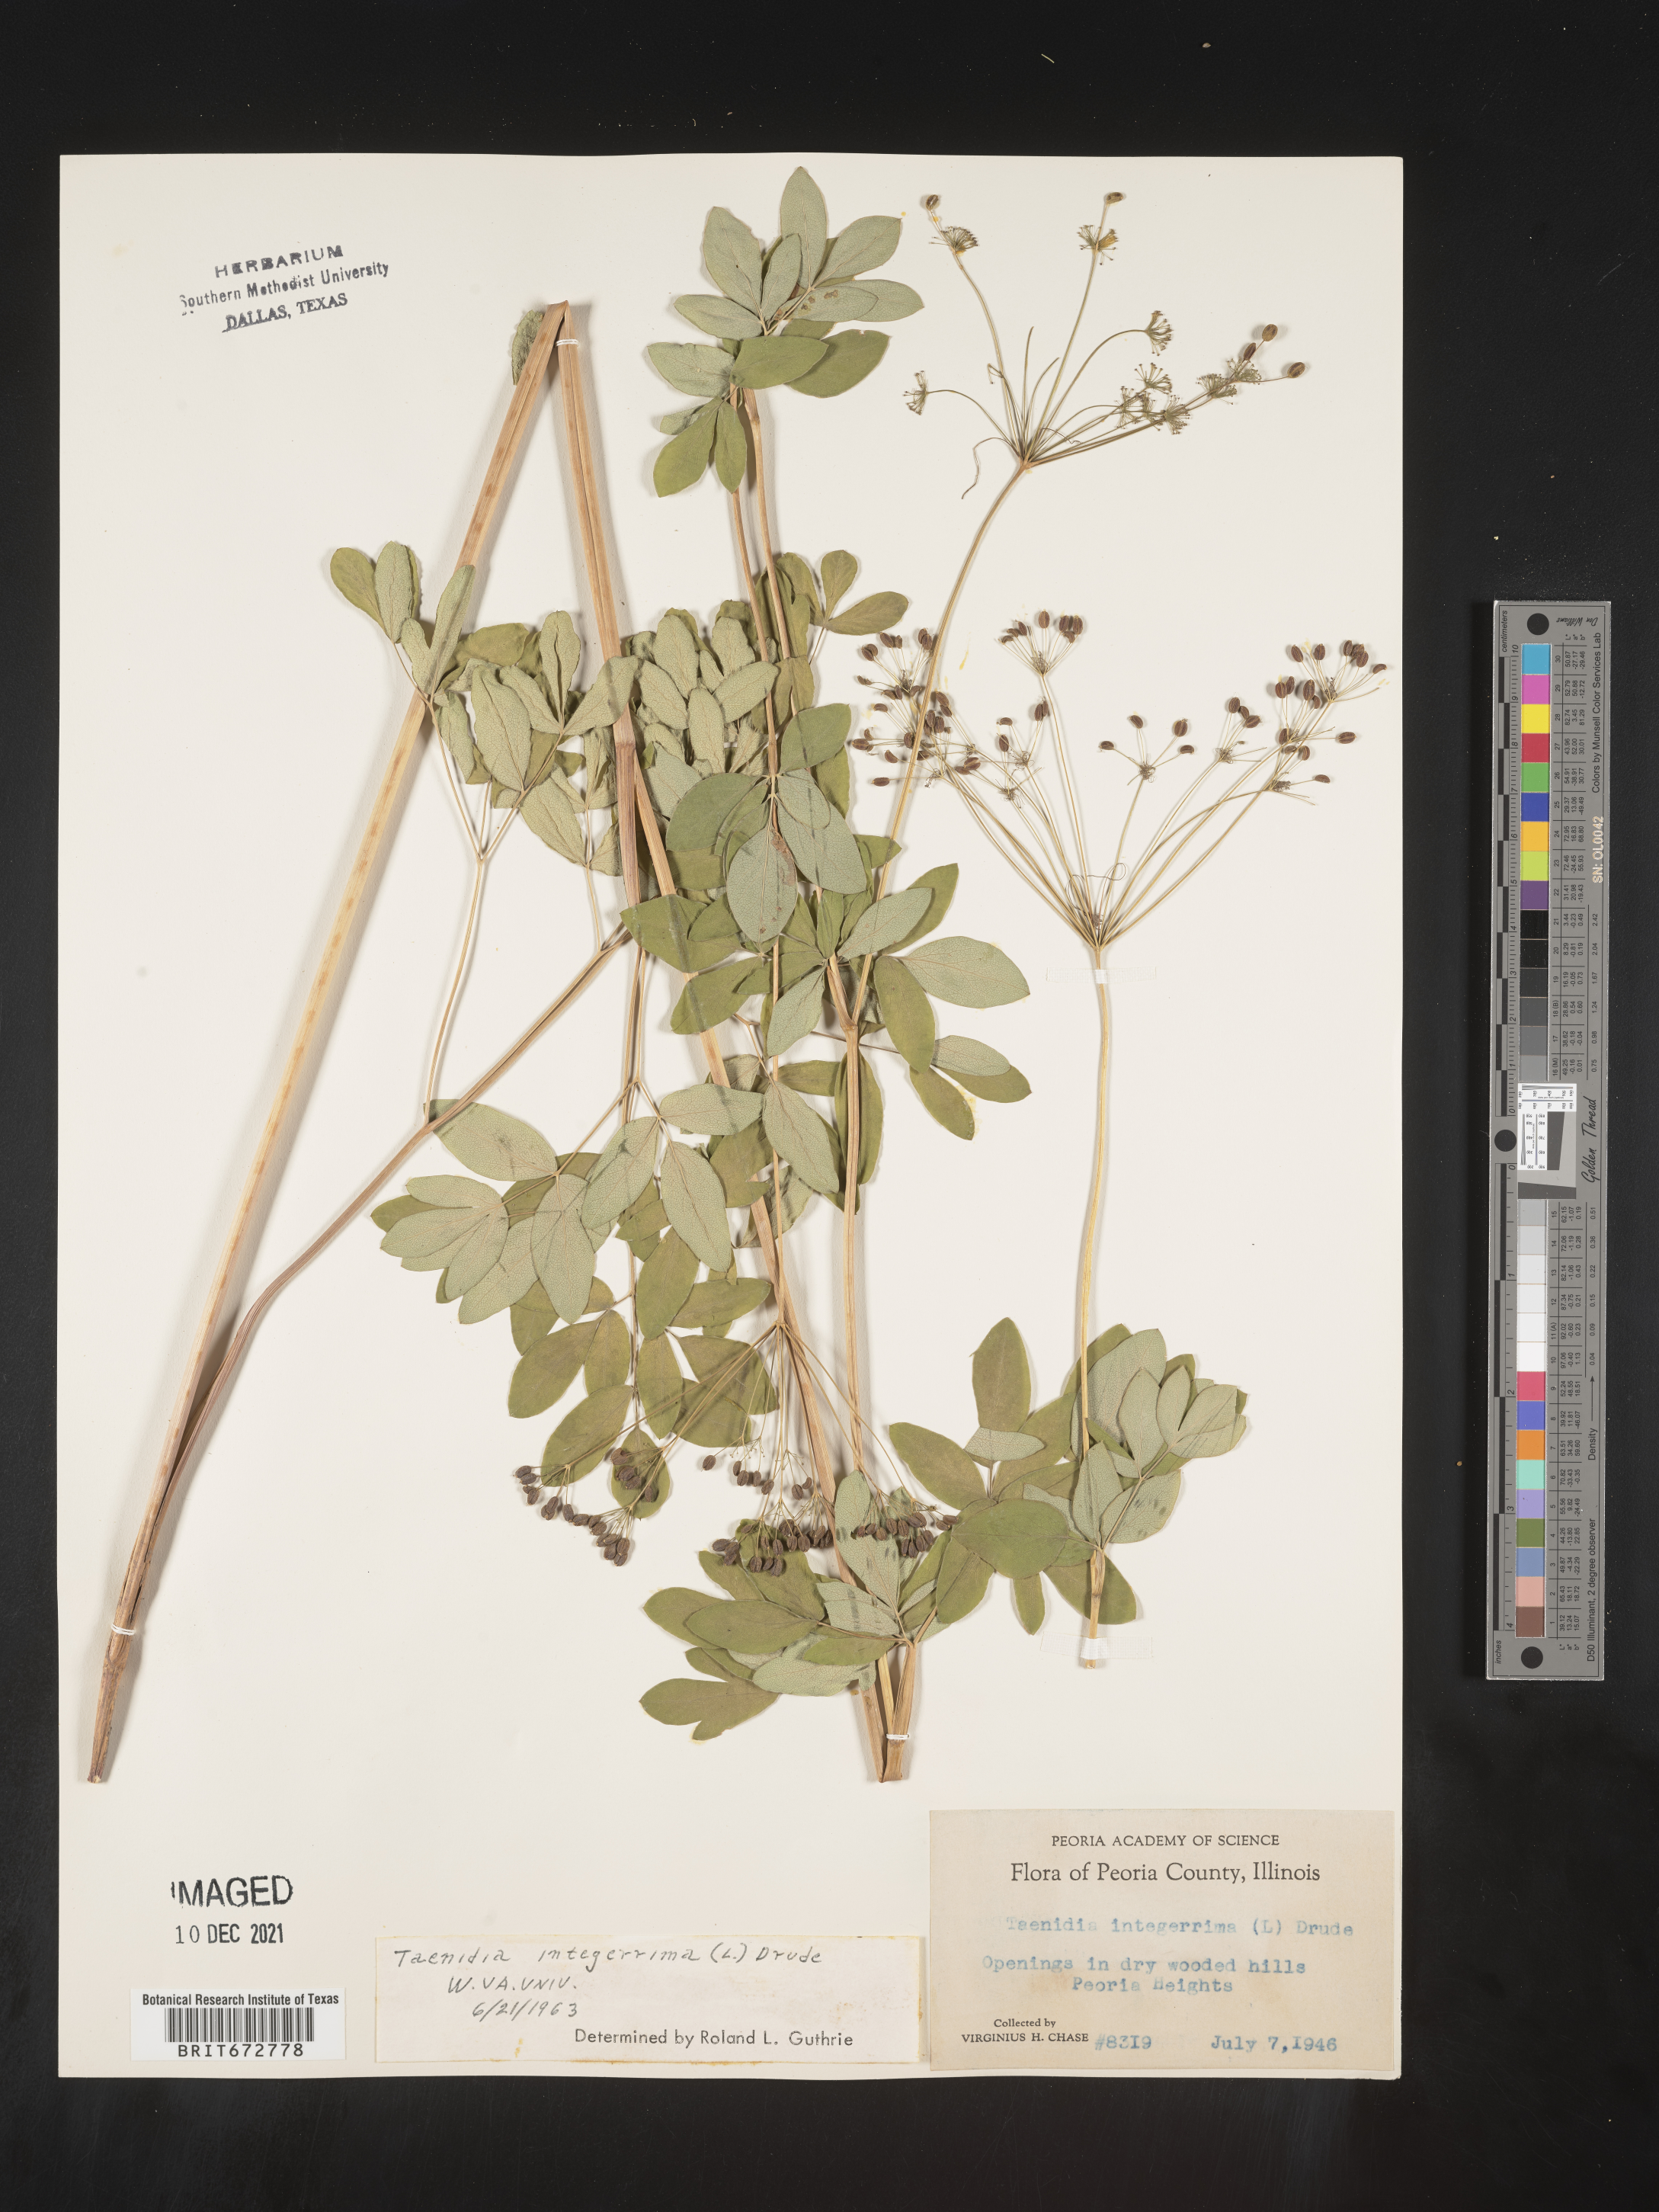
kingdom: Plantae
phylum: Tracheophyta
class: Magnoliopsida
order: Apiales
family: Apiaceae
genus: Taenidia
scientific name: Taenidia integerrima
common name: Golden alexander
